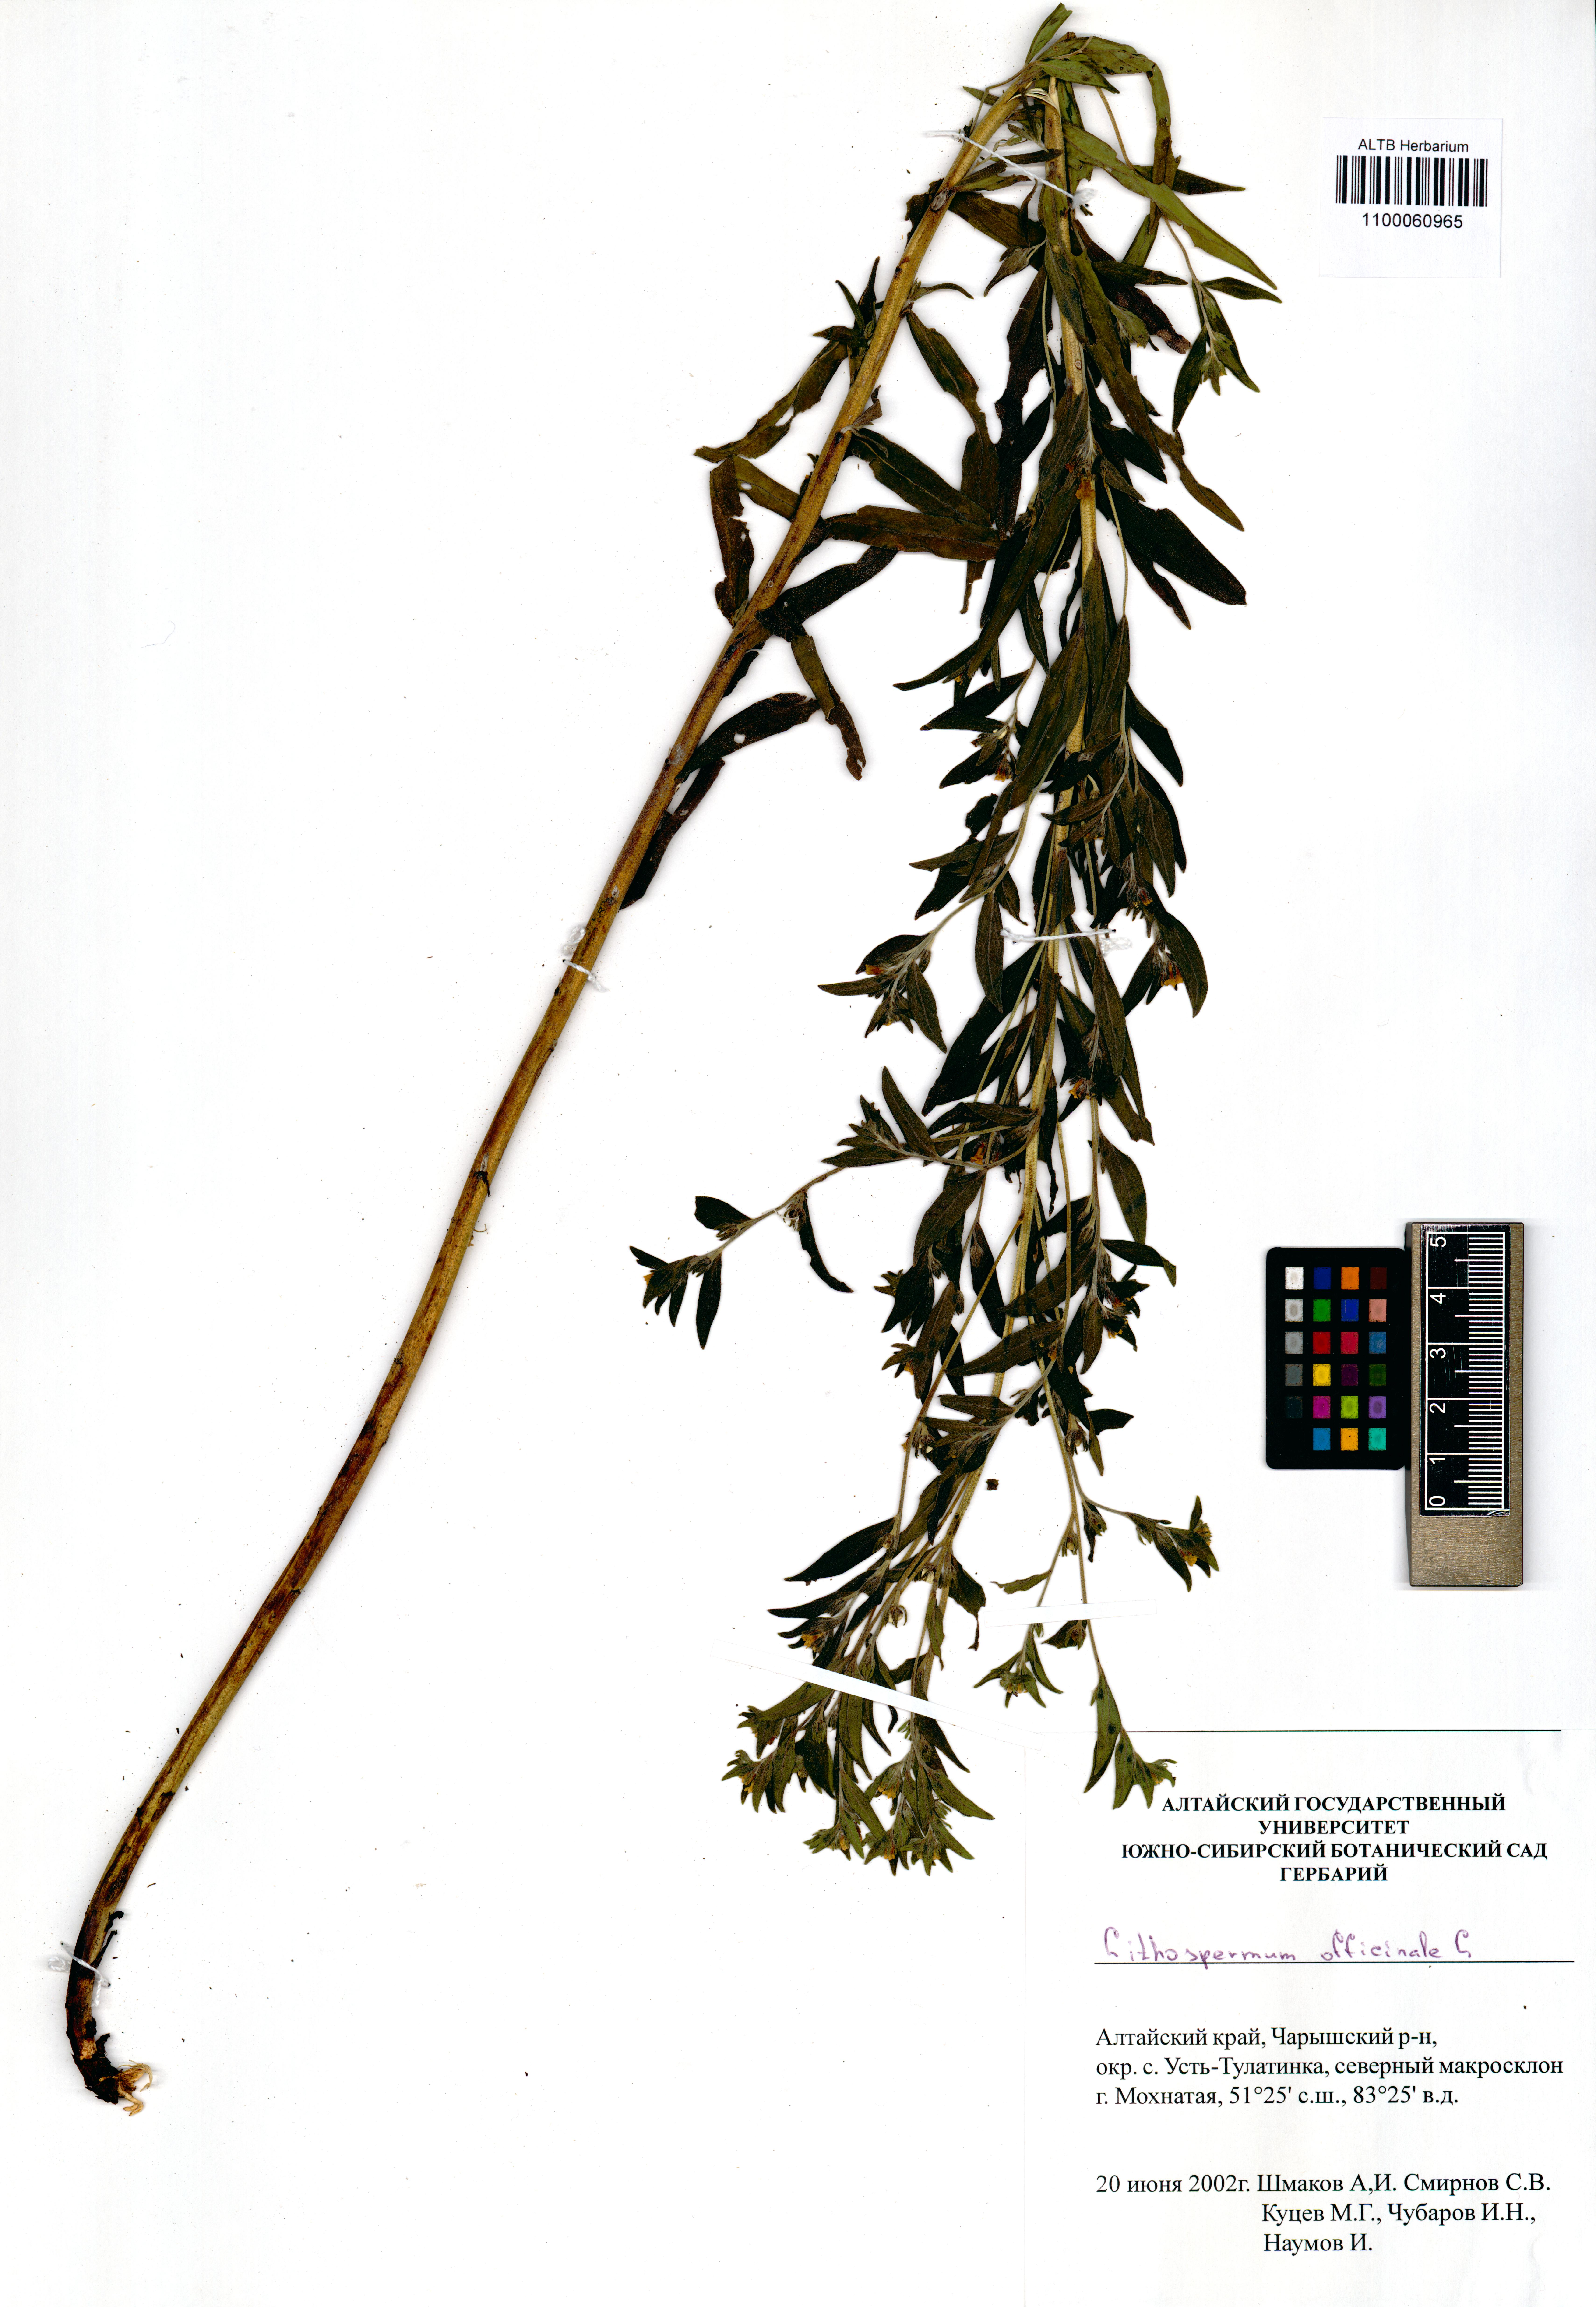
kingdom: Plantae
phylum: Tracheophyta
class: Magnoliopsida
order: Boraginales
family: Boraginaceae
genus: Lithospermum
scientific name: Lithospermum officinale
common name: Common gromwell
